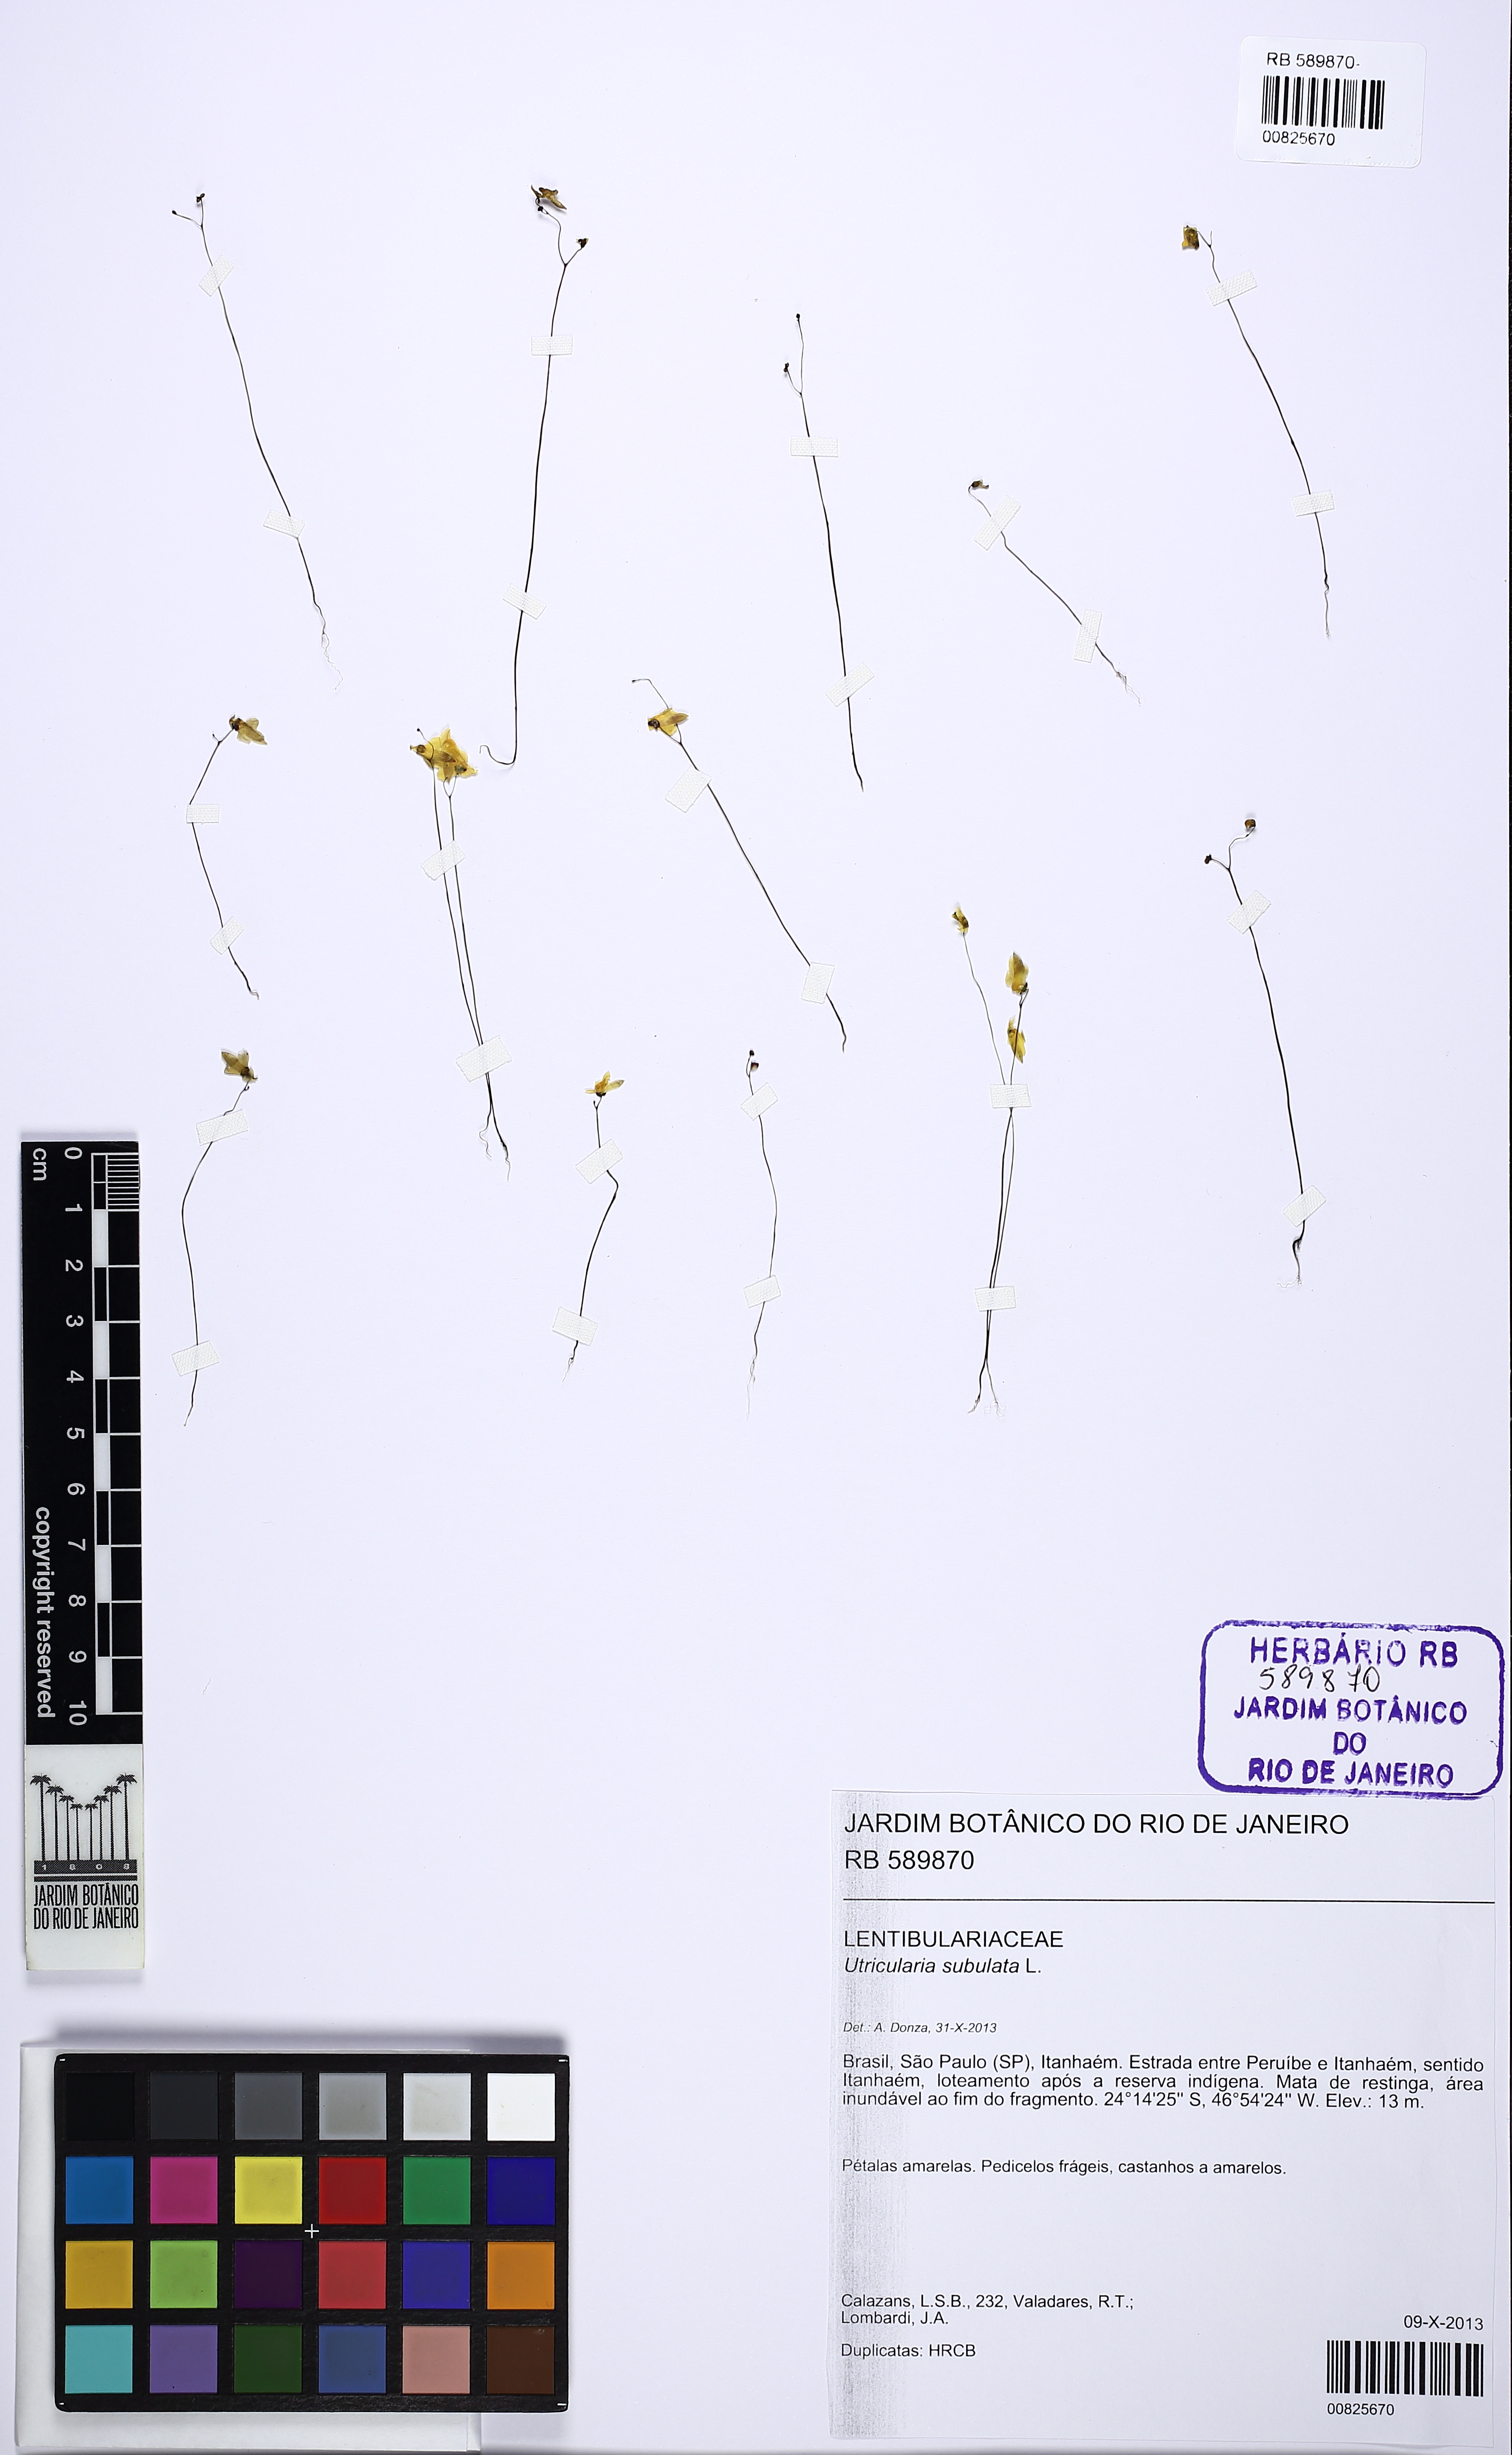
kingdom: Plantae
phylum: Tracheophyta
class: Magnoliopsida
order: Lamiales
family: Lentibulariaceae
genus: Utricularia
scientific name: Utricularia subulata
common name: Tiny bladderwort
